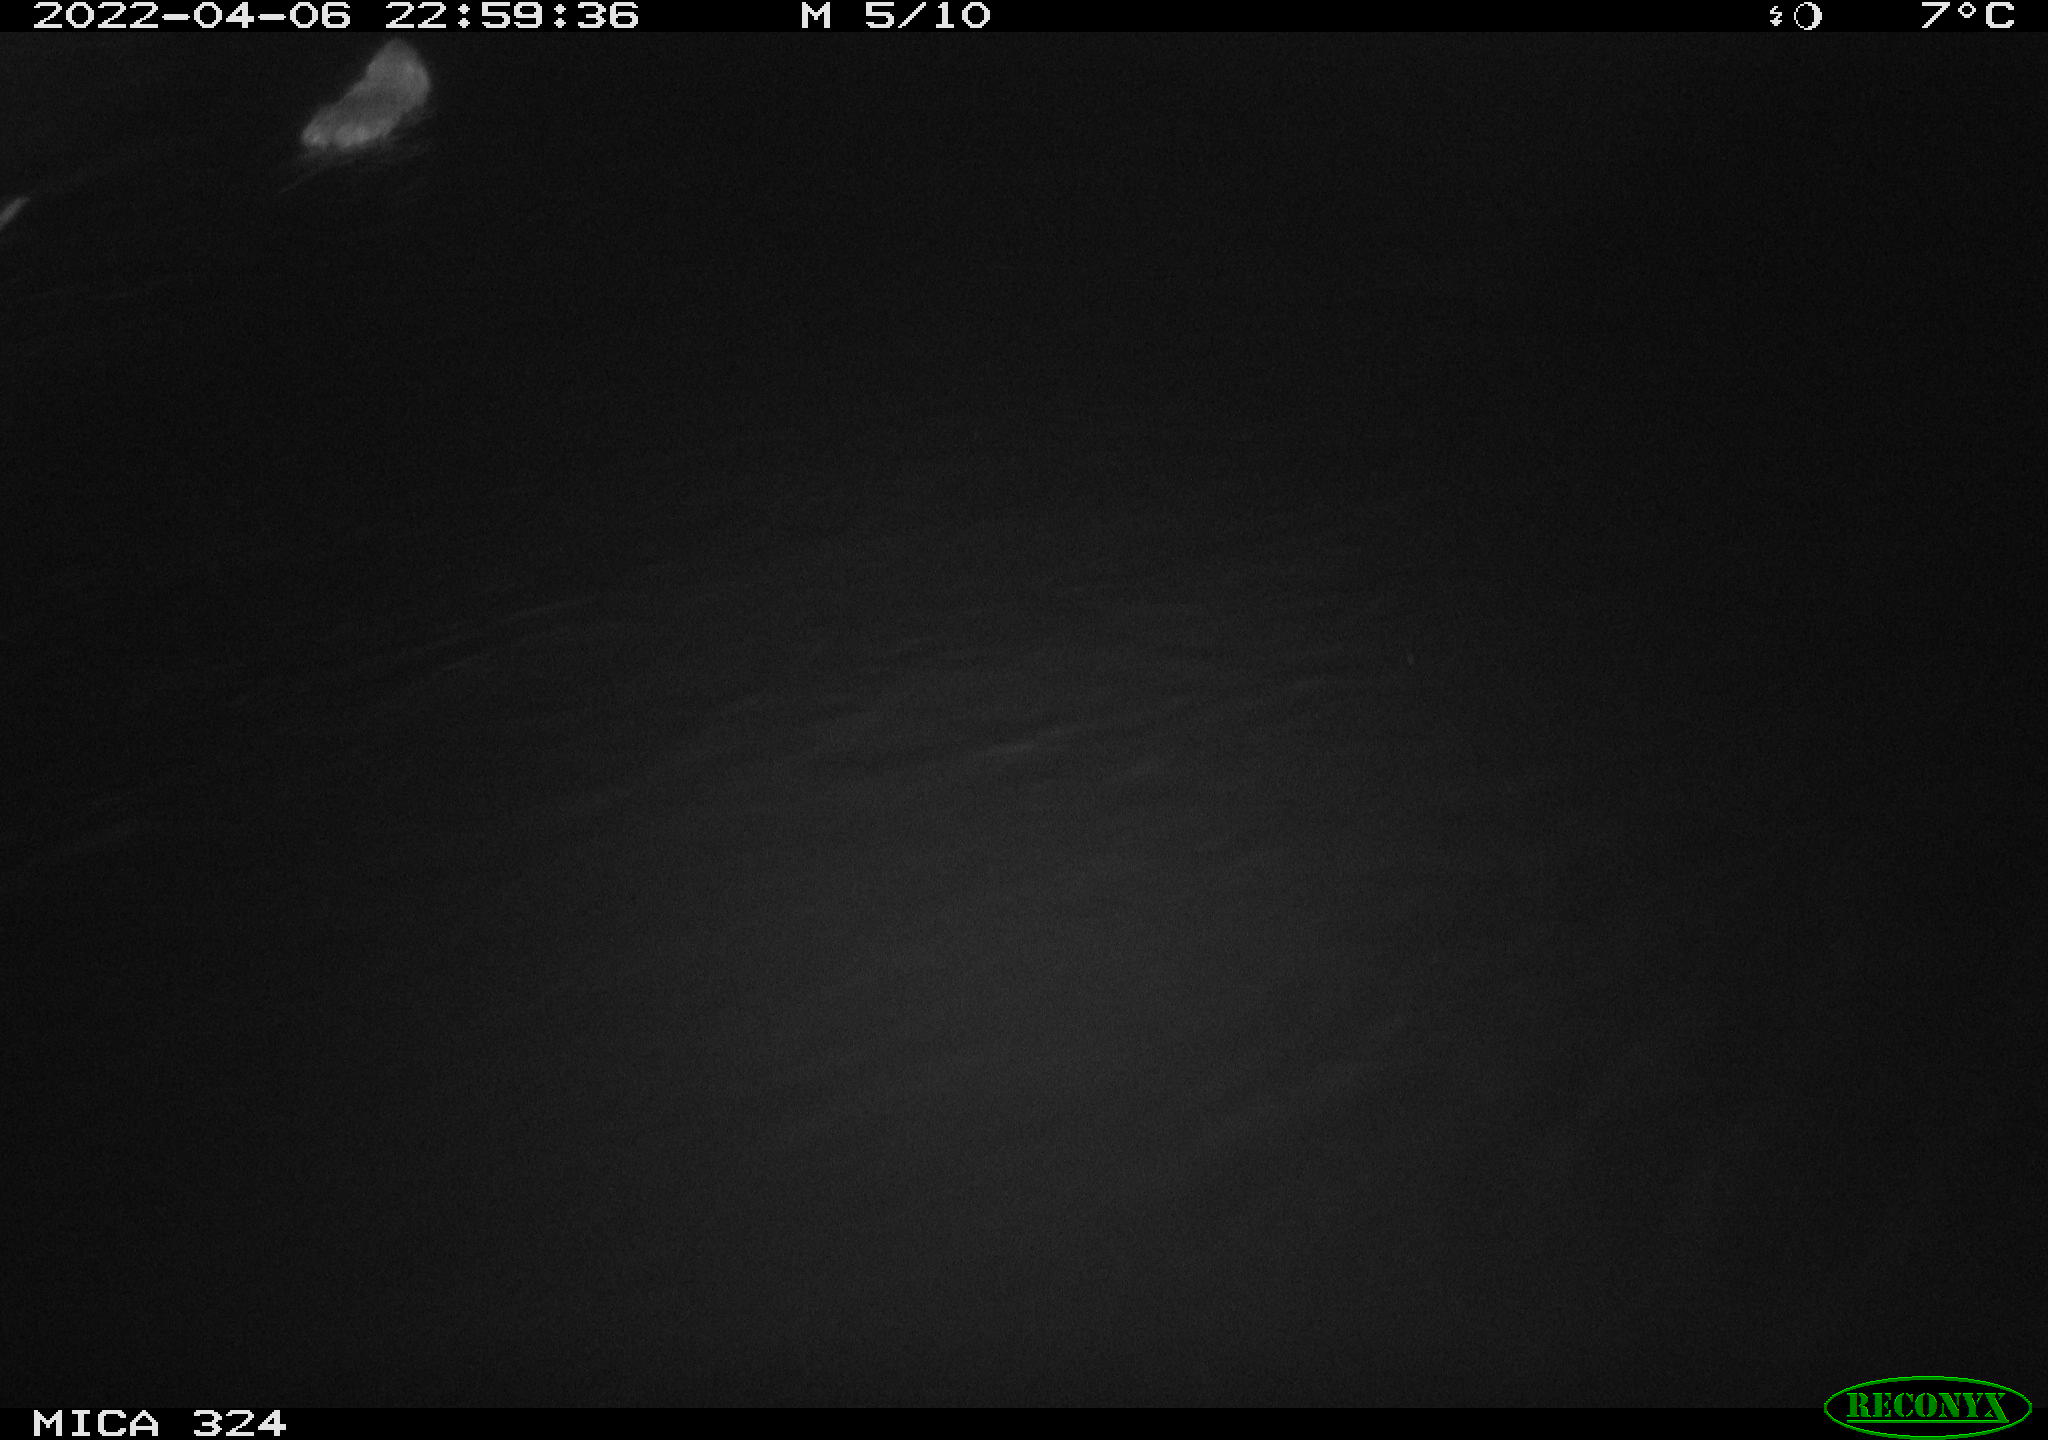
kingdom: Animalia
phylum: Chordata
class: Mammalia
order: Rodentia
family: Cricetidae
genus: Ondatra
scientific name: Ondatra zibethicus
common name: Muskrat
